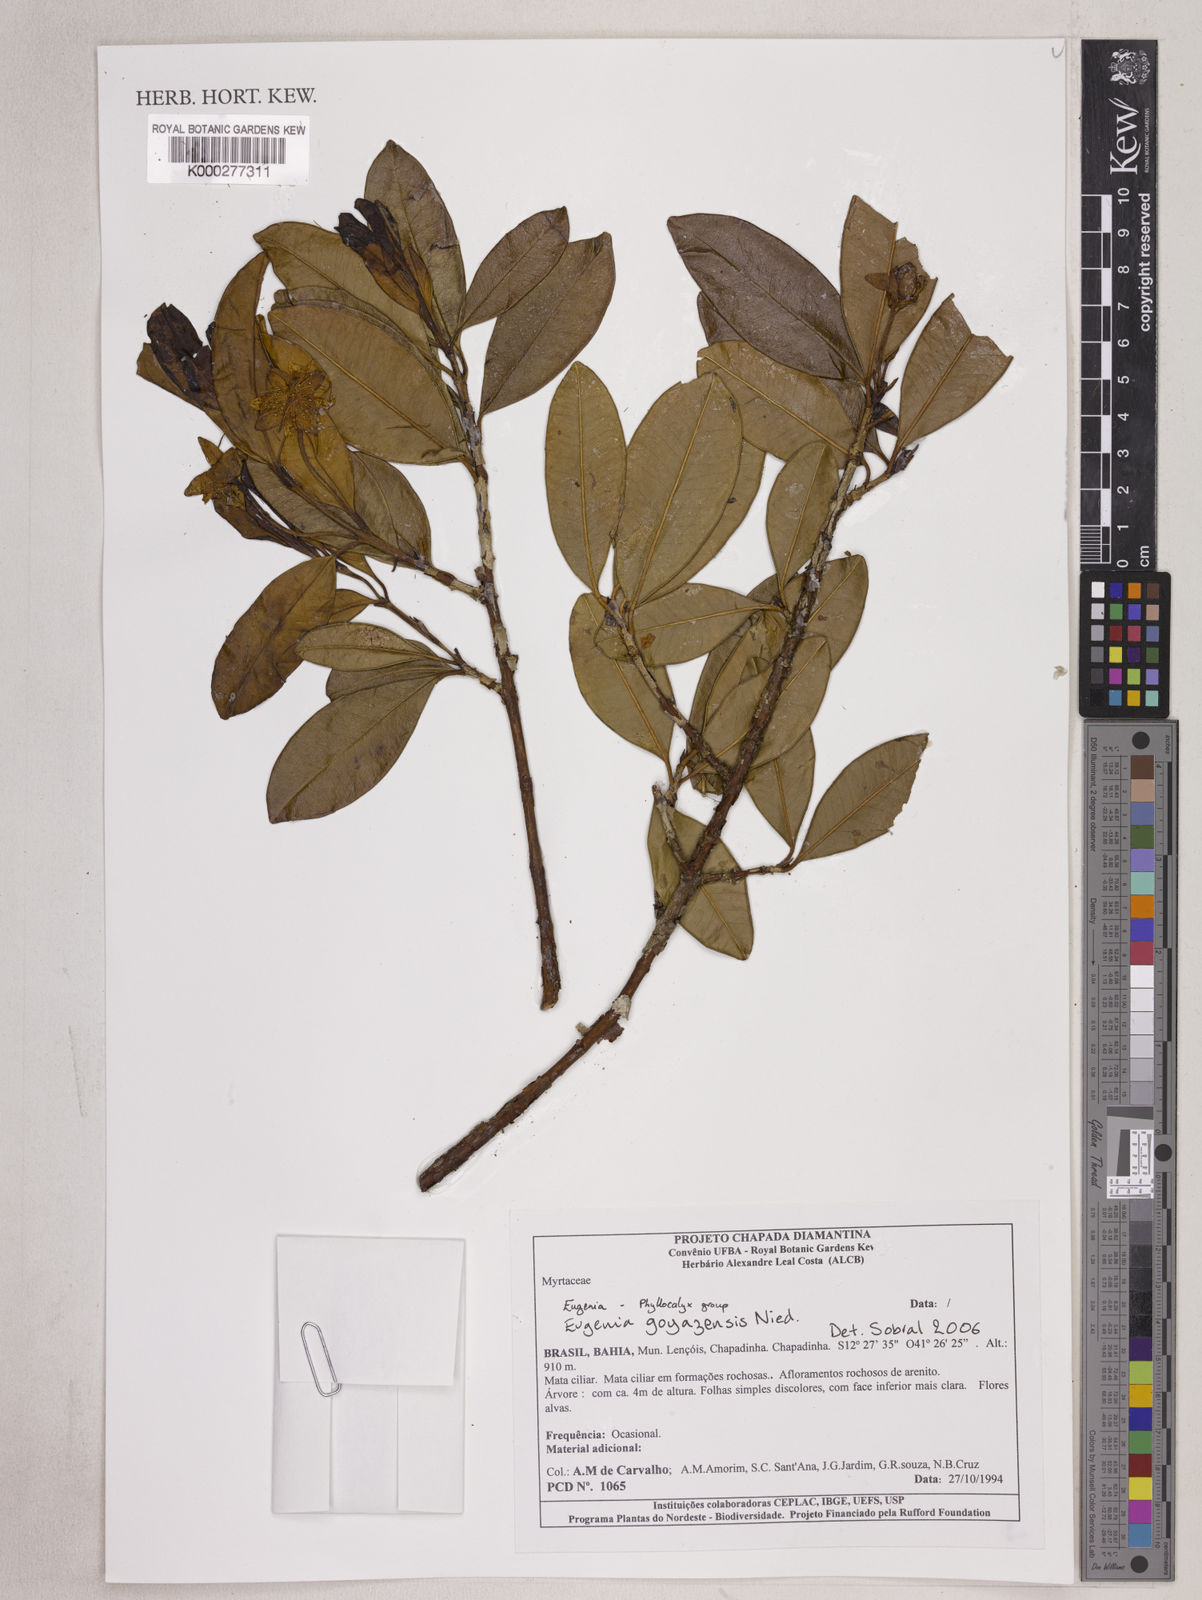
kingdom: Plantae
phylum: Tracheophyta
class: Magnoliopsida
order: Myrtales
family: Myrtaceae
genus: Eugenia
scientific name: Eugenia calycina
